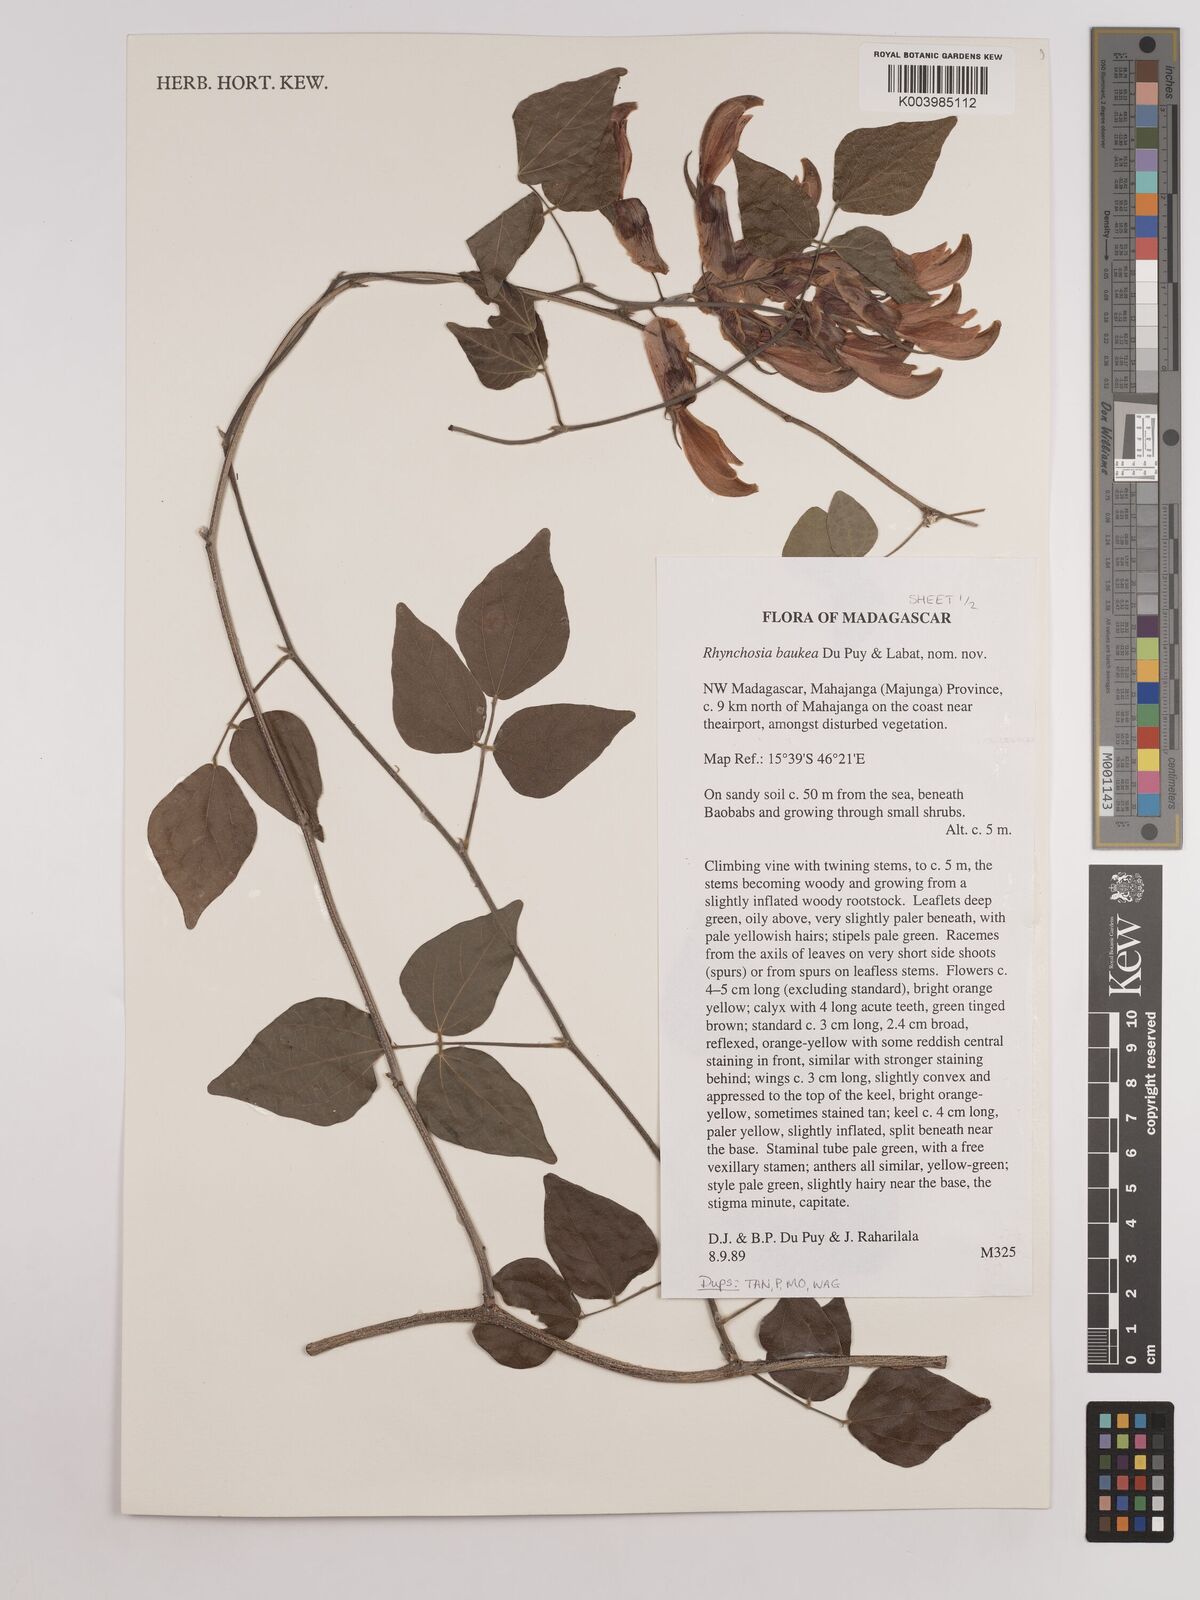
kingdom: Plantae
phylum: Tracheophyta
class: Magnoliopsida
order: Fabales
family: Fabaceae
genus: Rhynchosia
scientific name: Rhynchosia baukea
